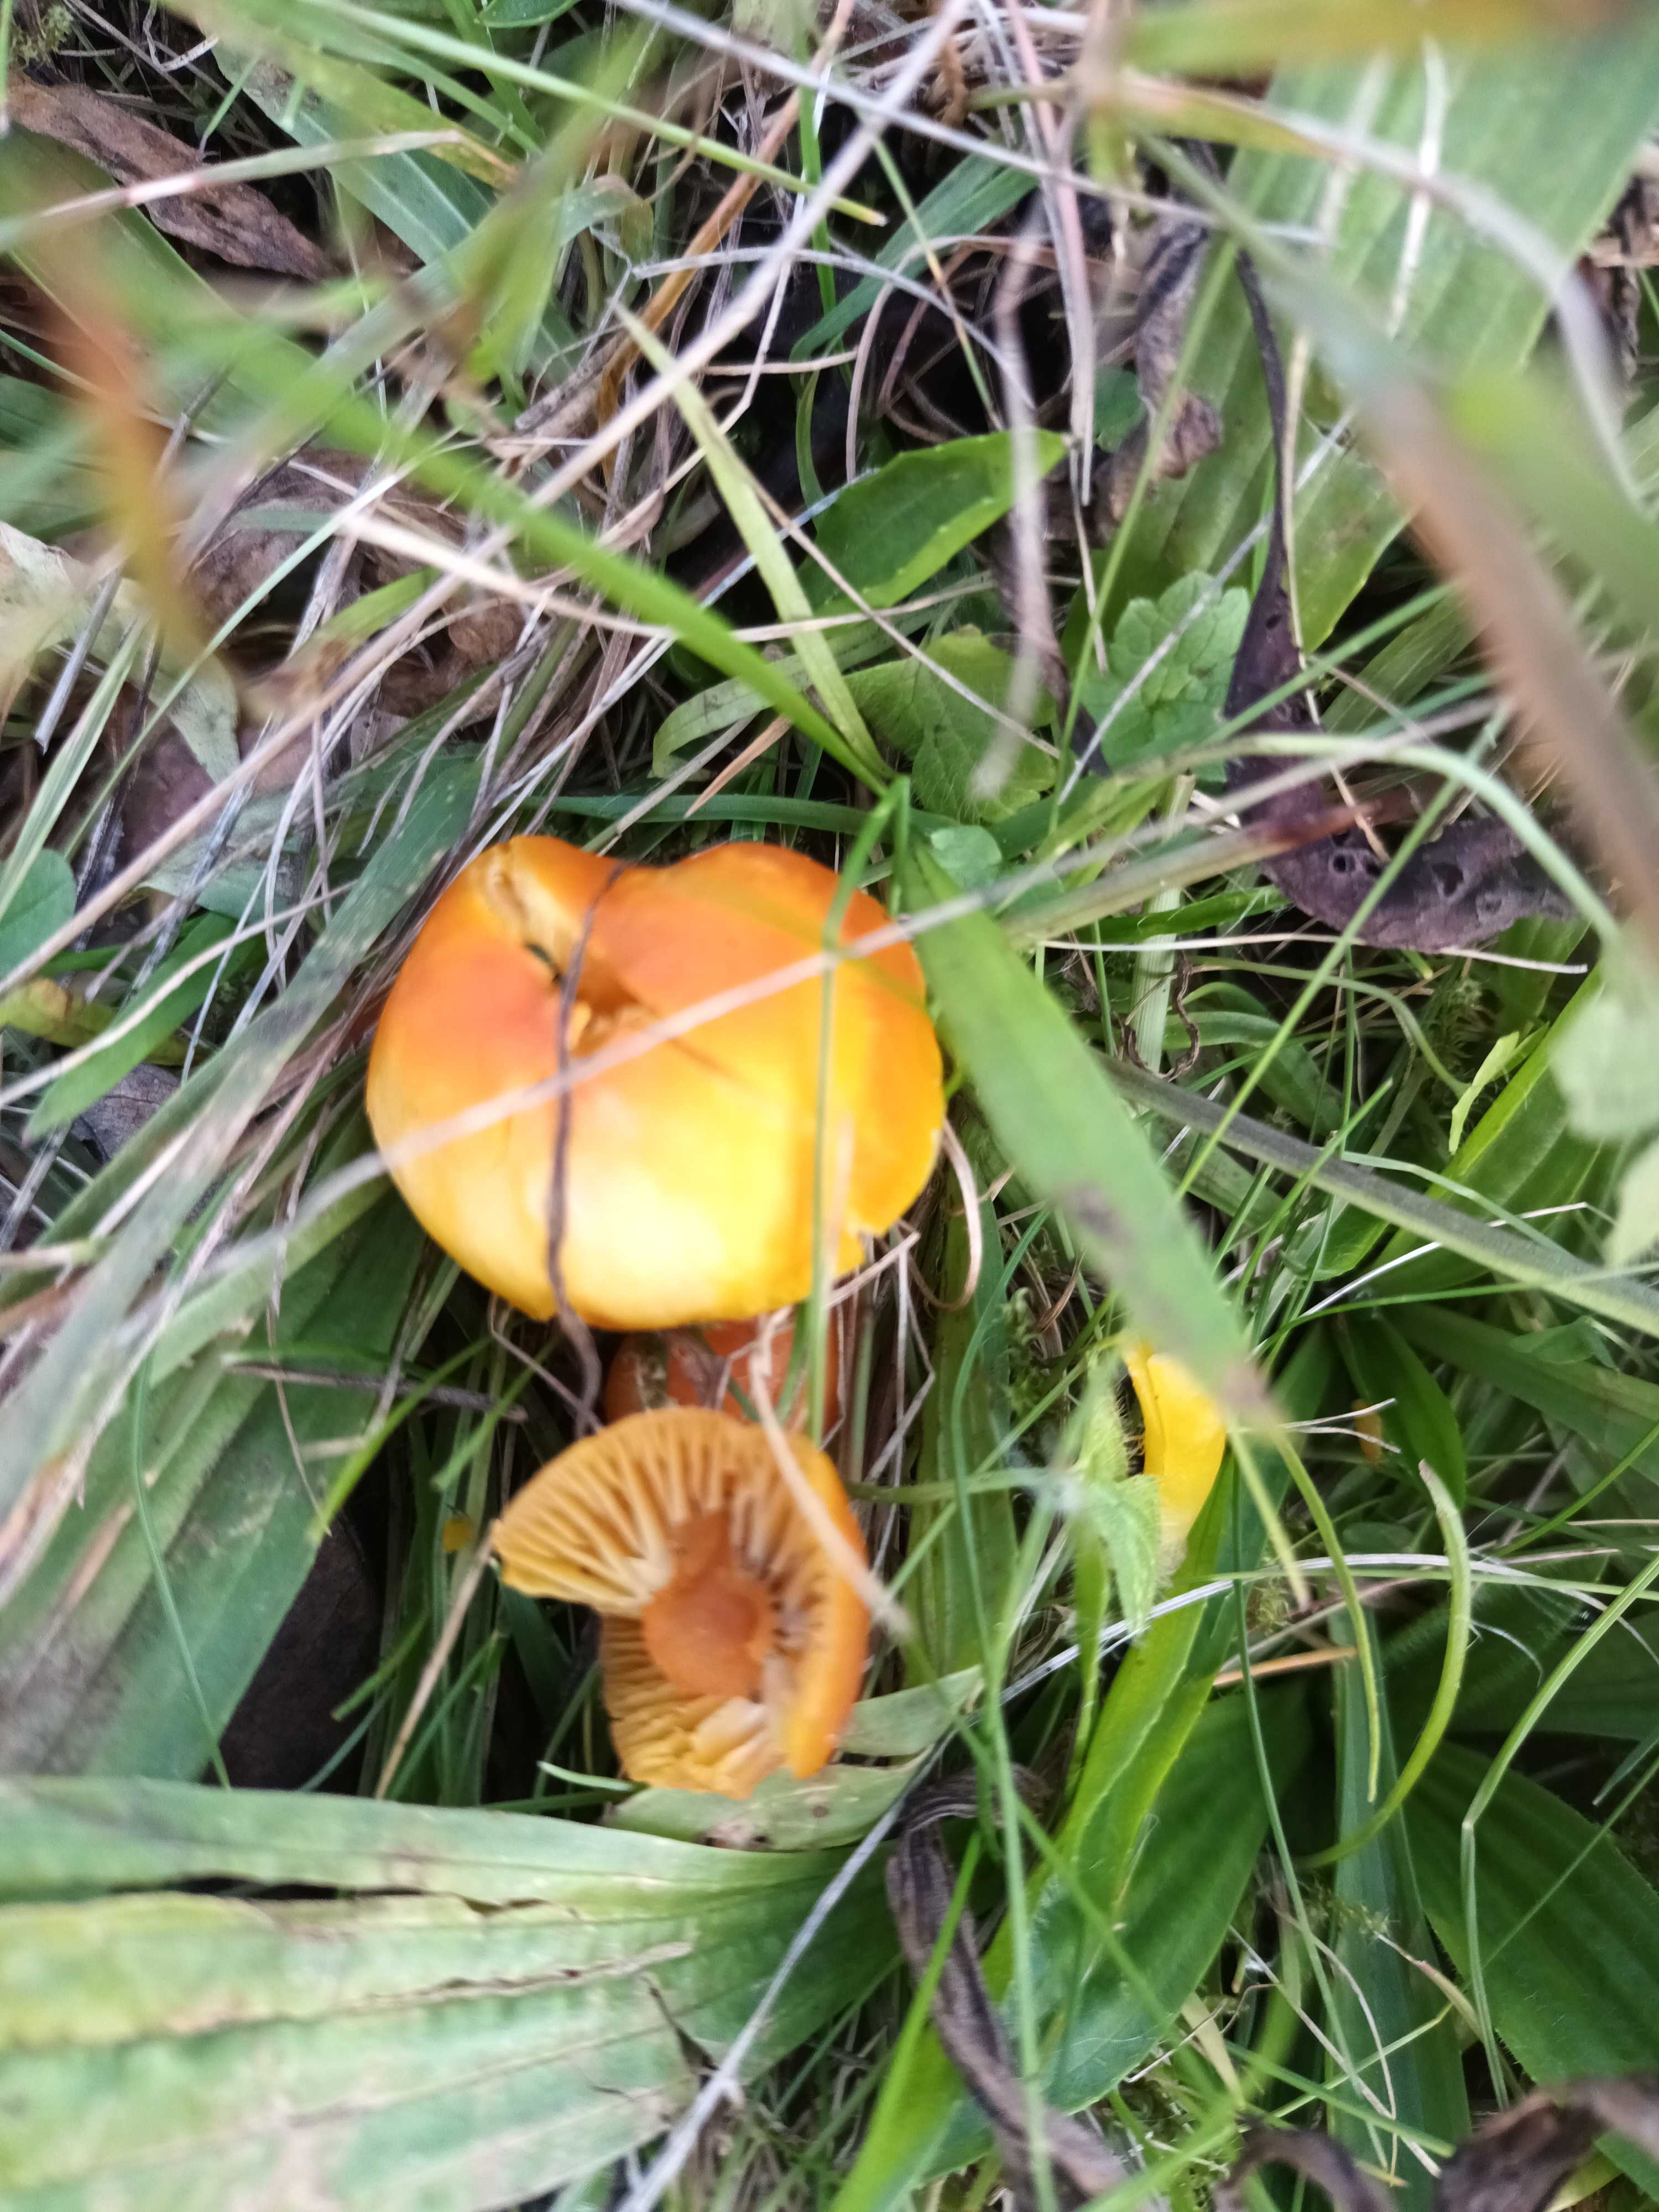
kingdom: Fungi
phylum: Basidiomycota
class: Agaricomycetes
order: Agaricales
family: Hygrophoraceae
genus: Hygrocybe
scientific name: Hygrocybe
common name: vokshat
